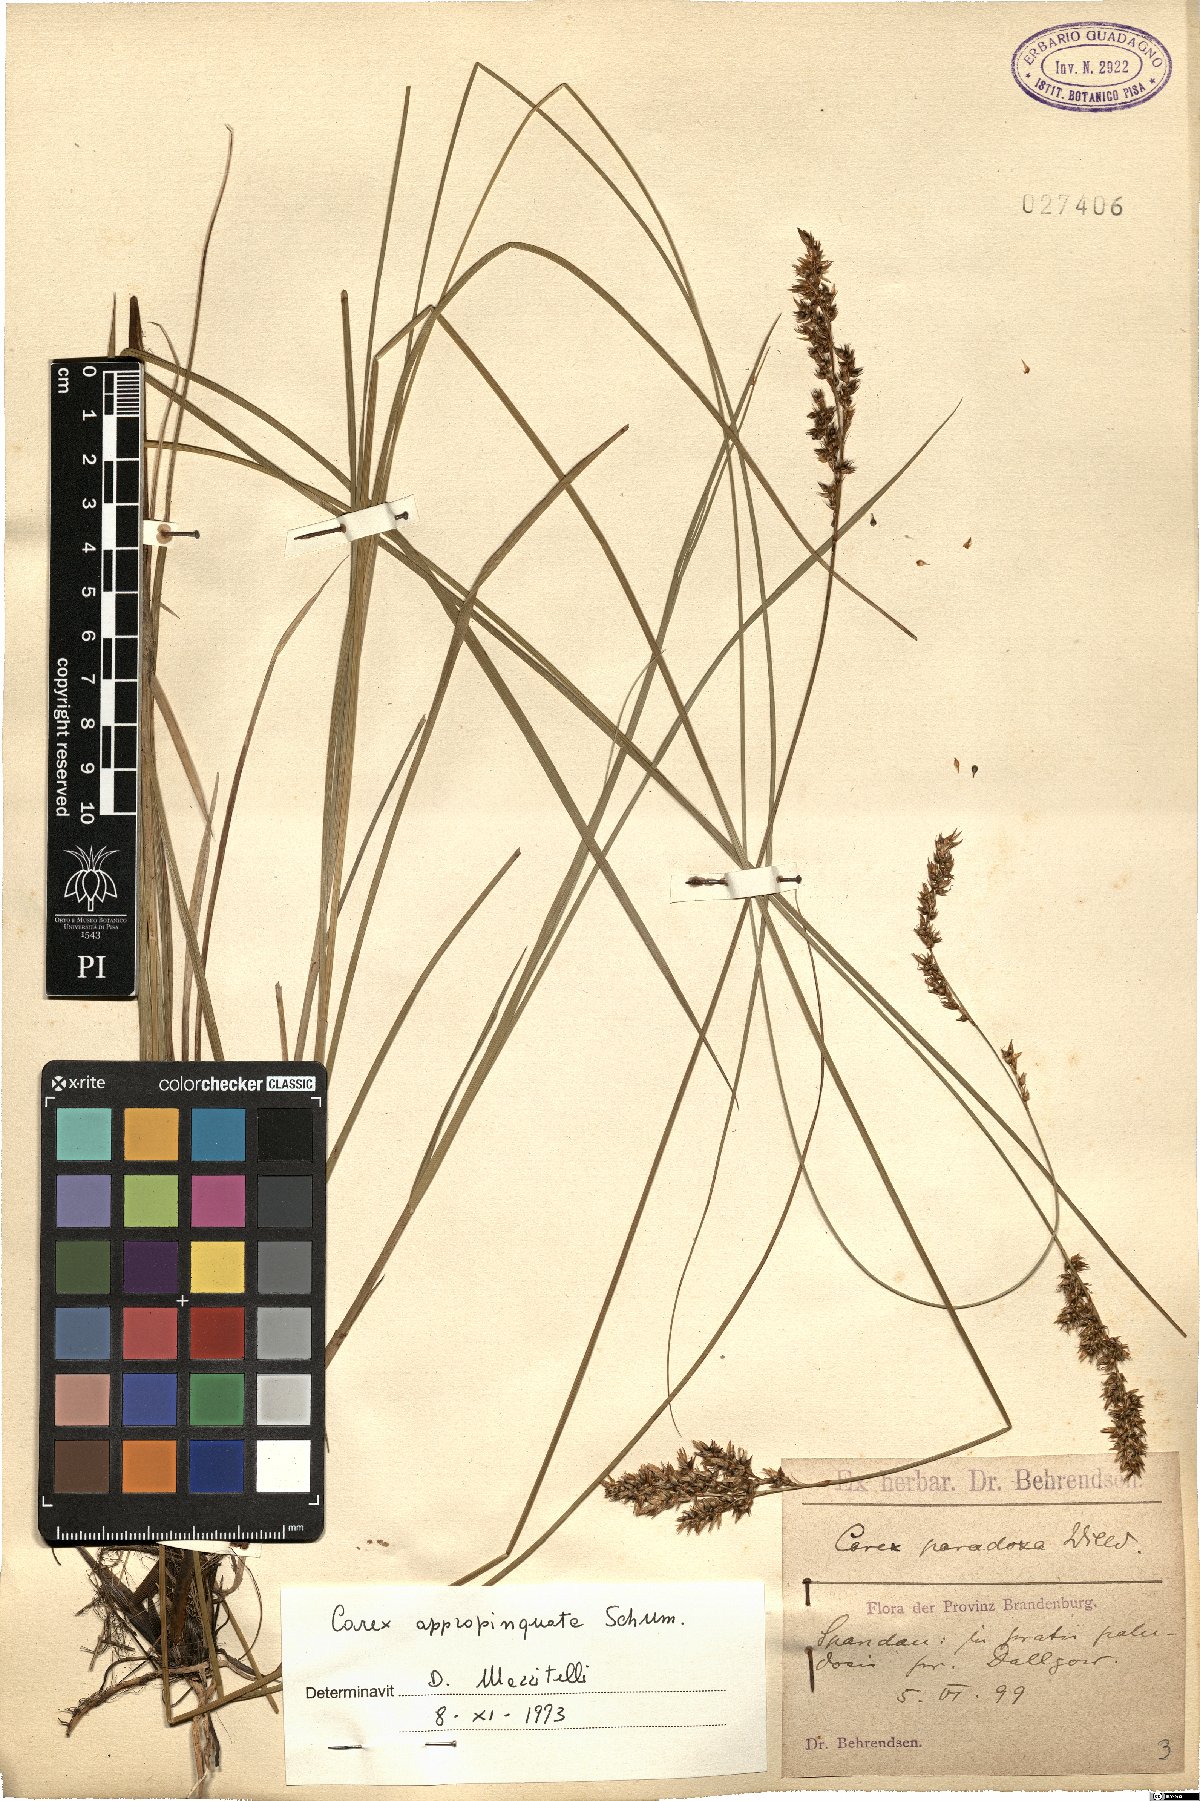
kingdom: Plantae
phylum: Tracheophyta
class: Liliopsida
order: Poales
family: Cyperaceae
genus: Carex
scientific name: Carex appropinquata
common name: Fibrous tussock-sedge
